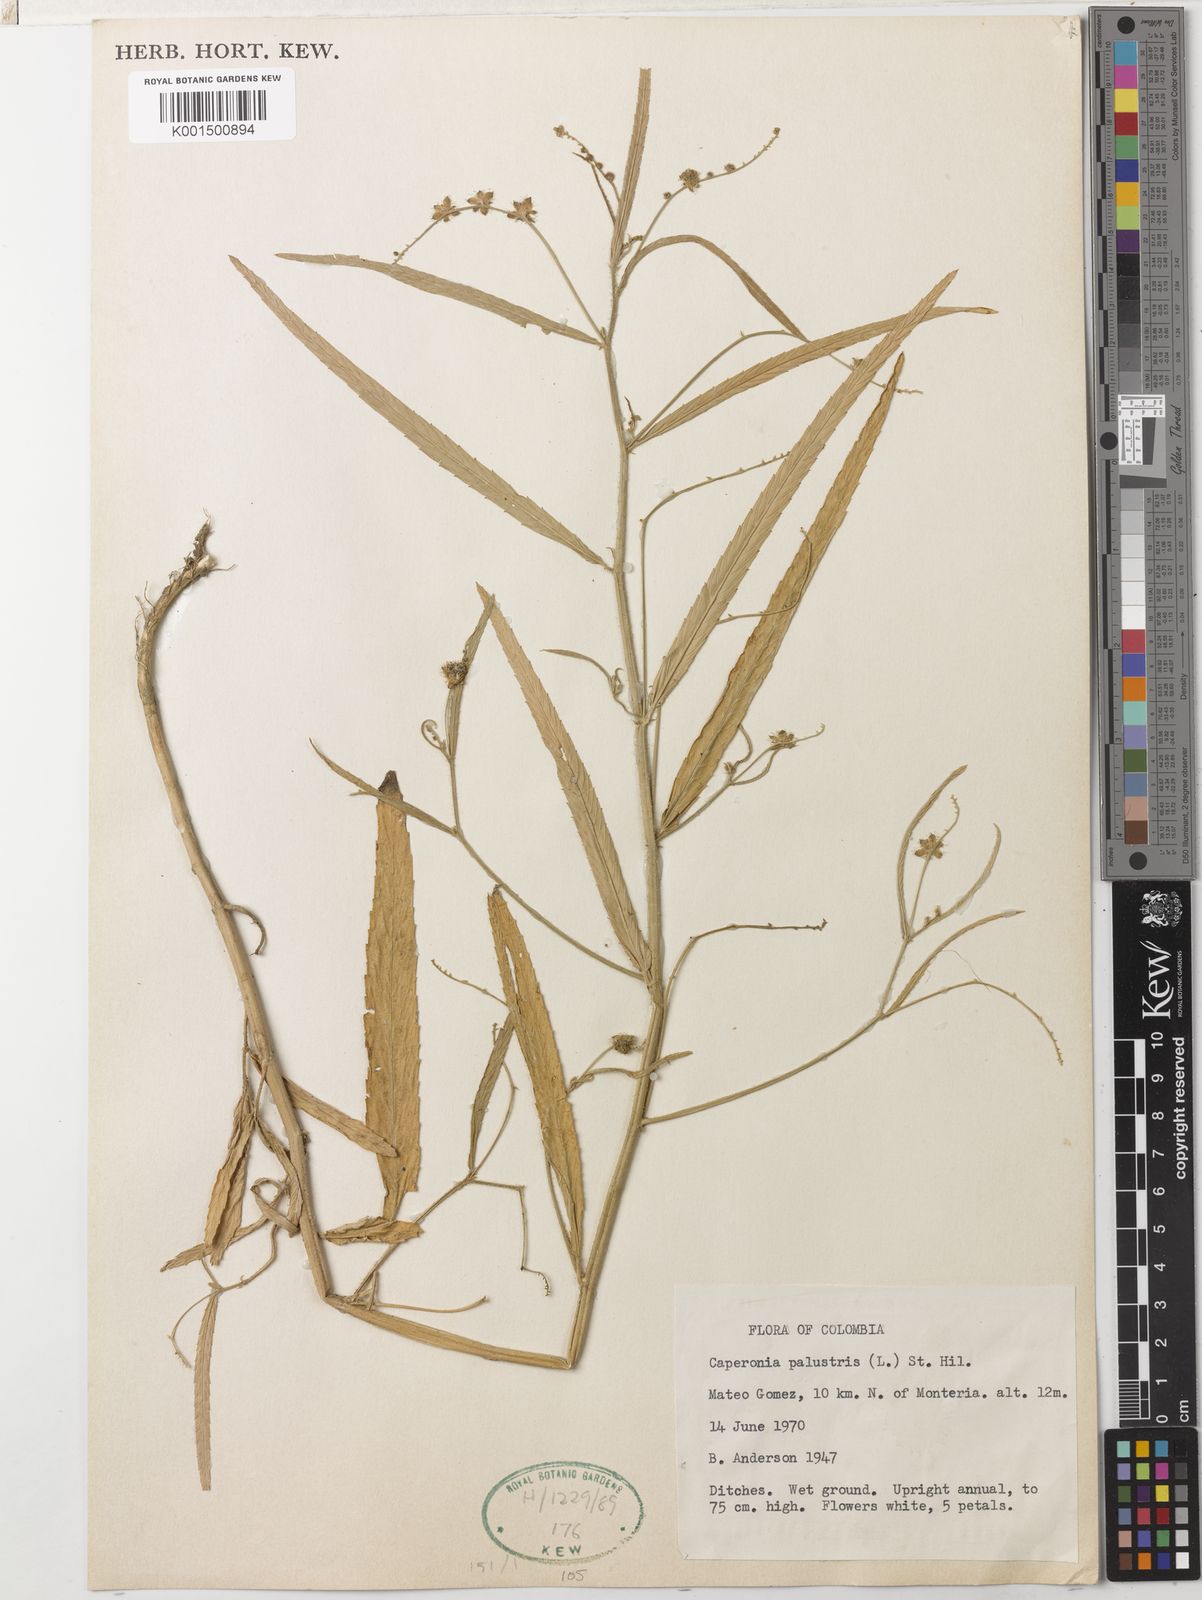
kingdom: Plantae
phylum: Tracheophyta
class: Magnoliopsida
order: Malpighiales
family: Euphorbiaceae
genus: Caperonia
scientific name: Caperonia palustris
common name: Sacatrapo
